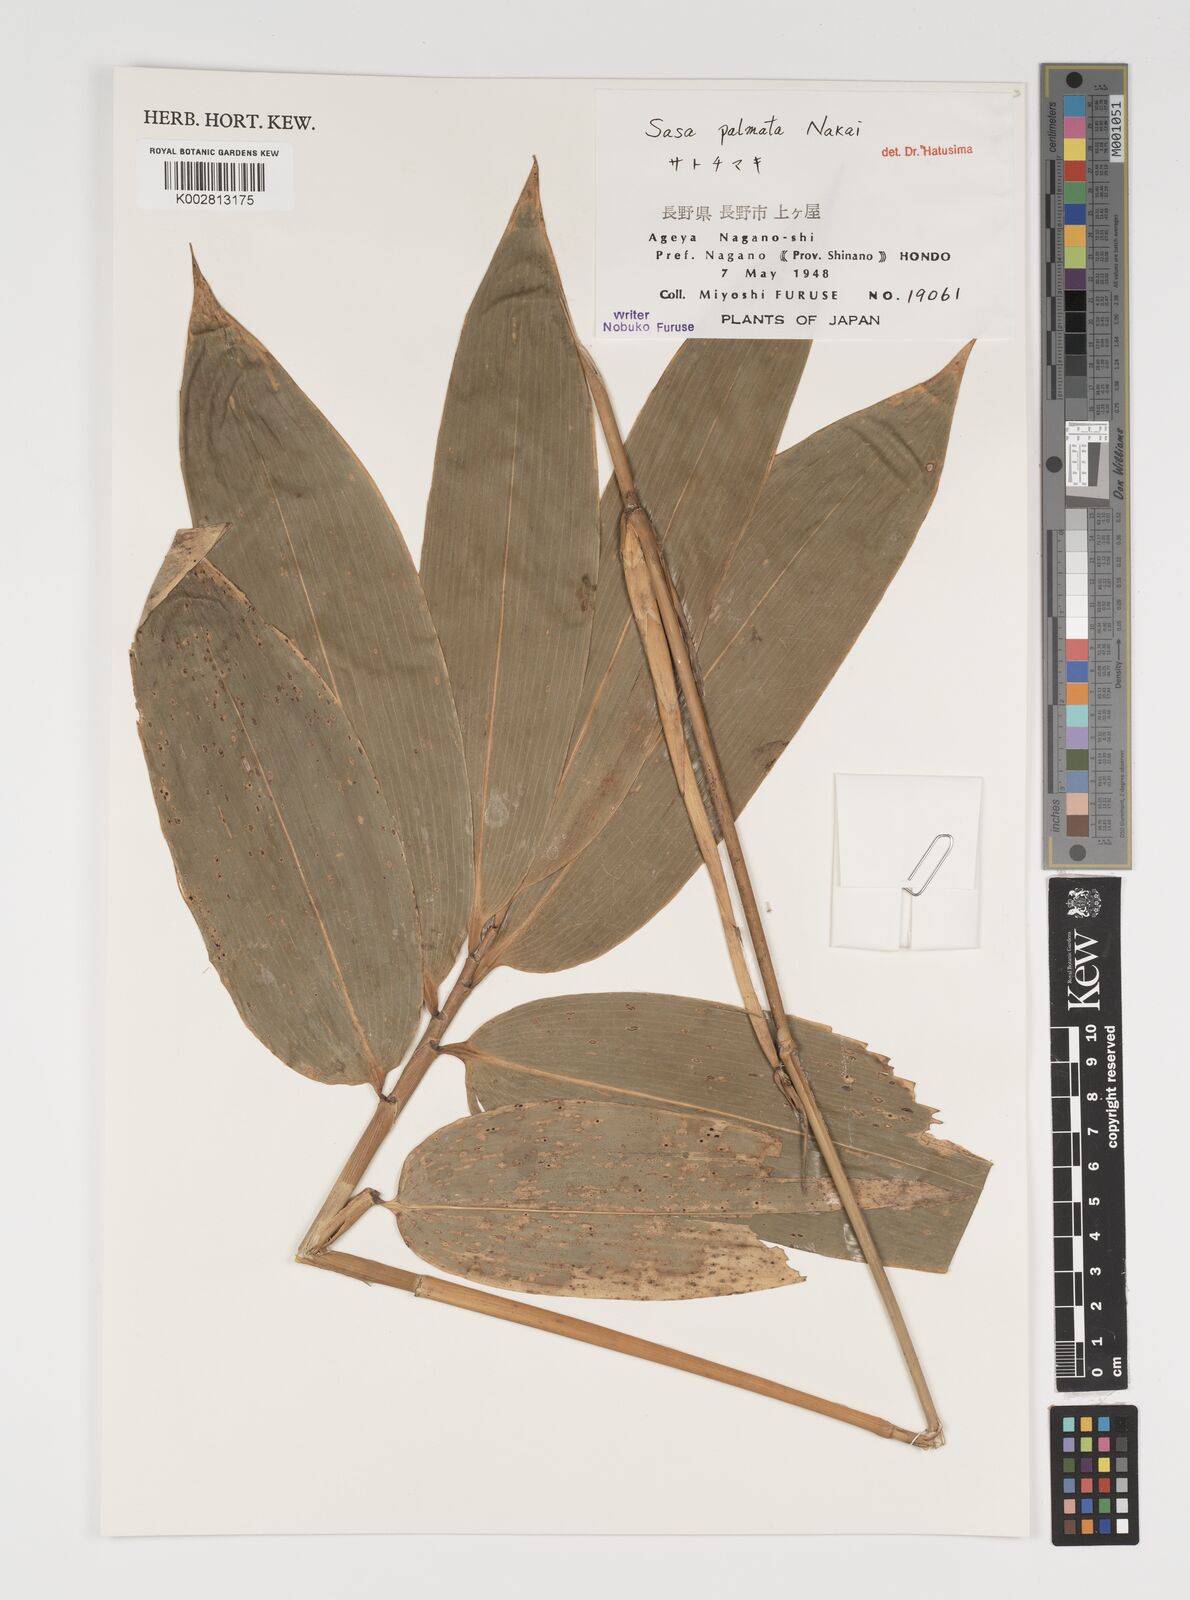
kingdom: Plantae
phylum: Tracheophyta
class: Liliopsida
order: Poales
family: Poaceae
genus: Sasa
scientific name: Sasa palmata
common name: Broad-leaved bamboo
